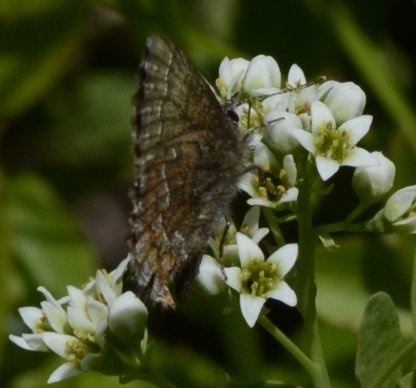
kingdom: Animalia
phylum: Arthropoda
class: Insecta
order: Lepidoptera
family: Lycaenidae
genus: Incisalia
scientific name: Incisalia niphon
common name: Eastern Pine Elfin
